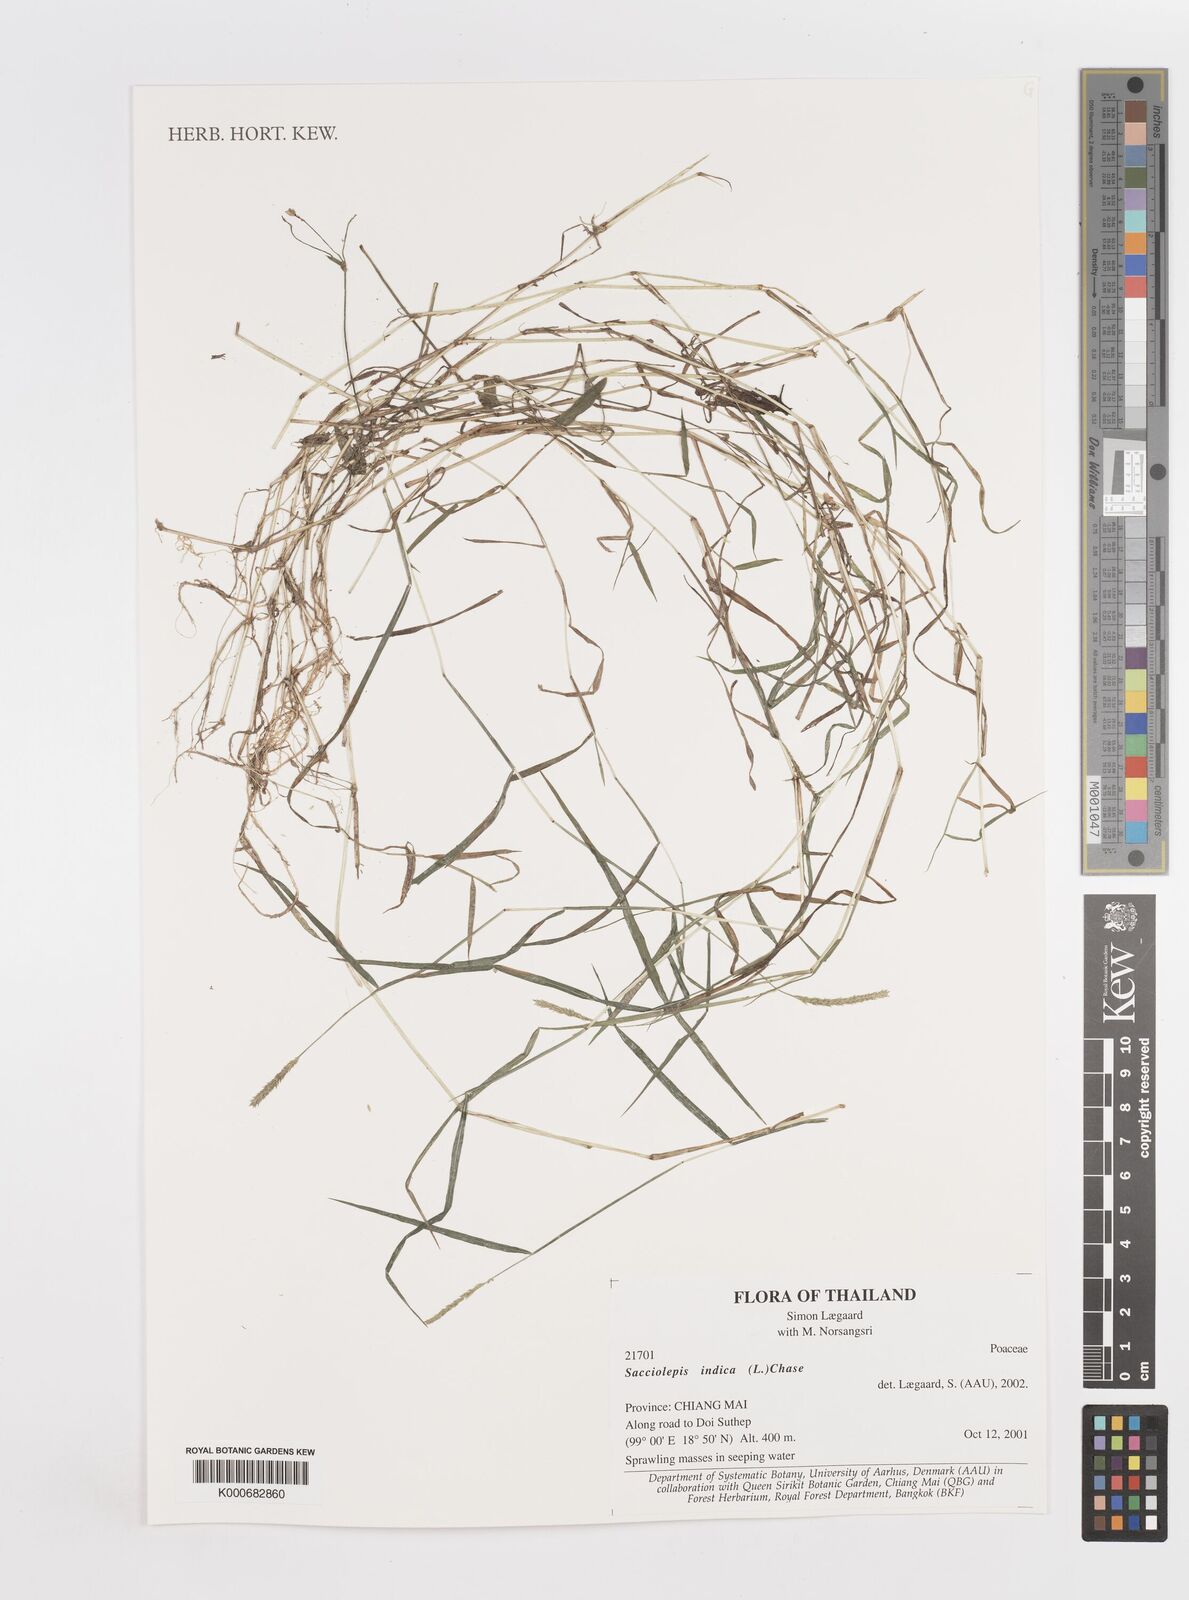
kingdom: Plantae
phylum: Tracheophyta
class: Liliopsida
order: Poales
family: Poaceae
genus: Sacciolepis
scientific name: Sacciolepis indica
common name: Glenwoodgrass
